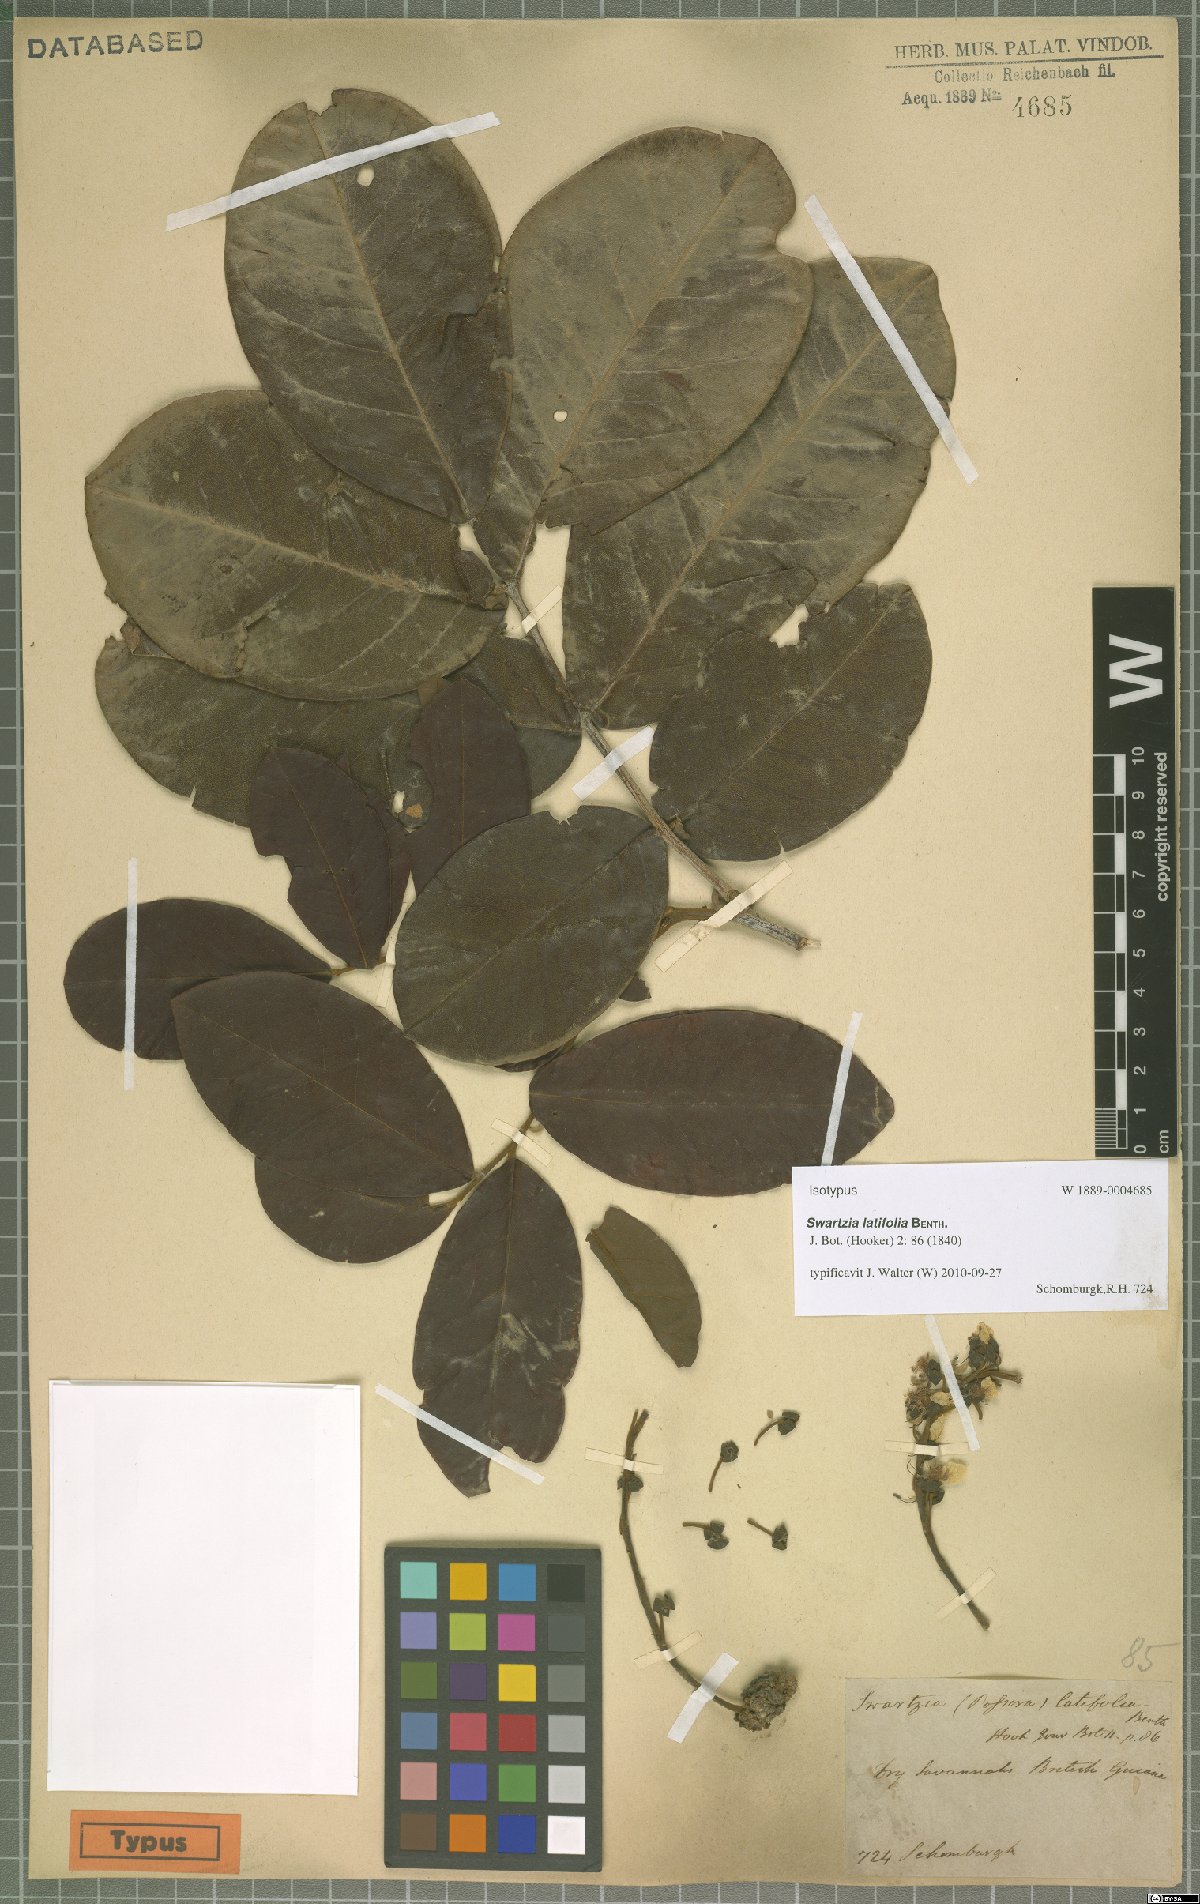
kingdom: Plantae
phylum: Tracheophyta
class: Magnoliopsida
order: Fabales
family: Fabaceae
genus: Swartzia
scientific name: Swartzia latifolia
